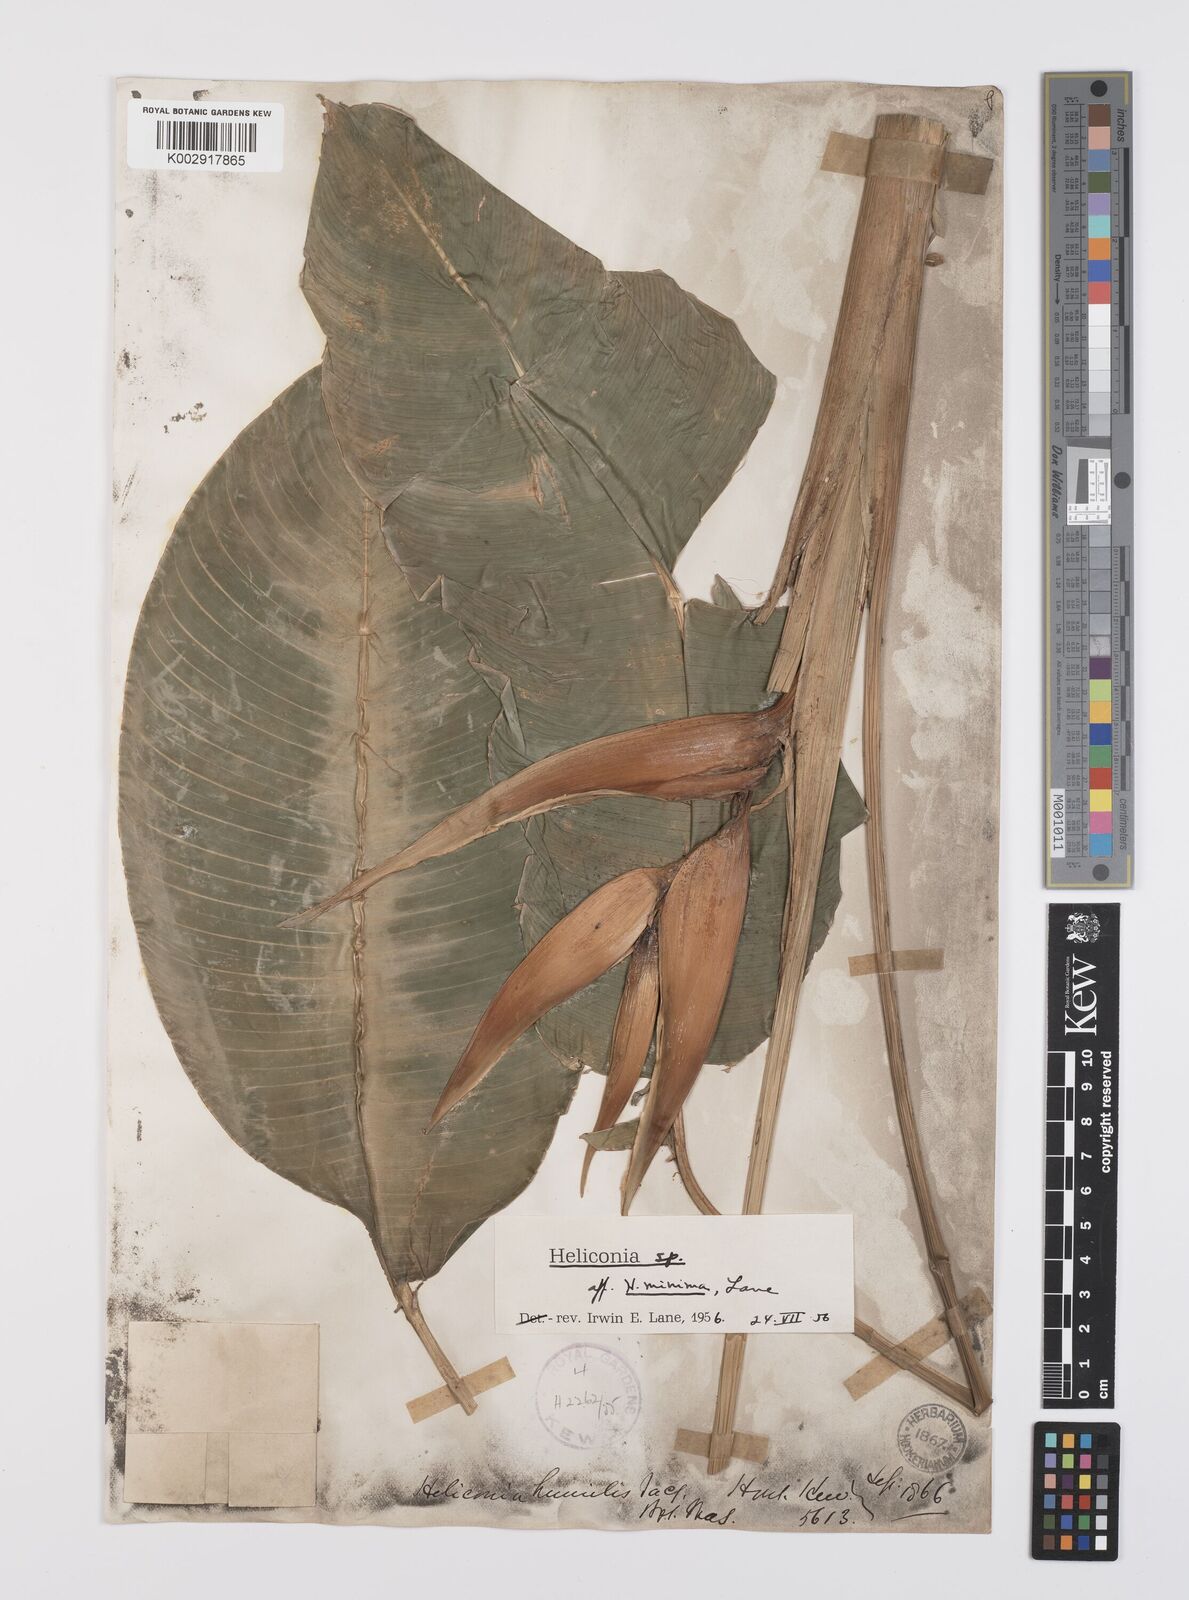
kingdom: Plantae
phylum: Tracheophyta
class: Liliopsida
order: Zingiberales
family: Heliconiaceae
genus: Heliconia
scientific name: Heliconia
